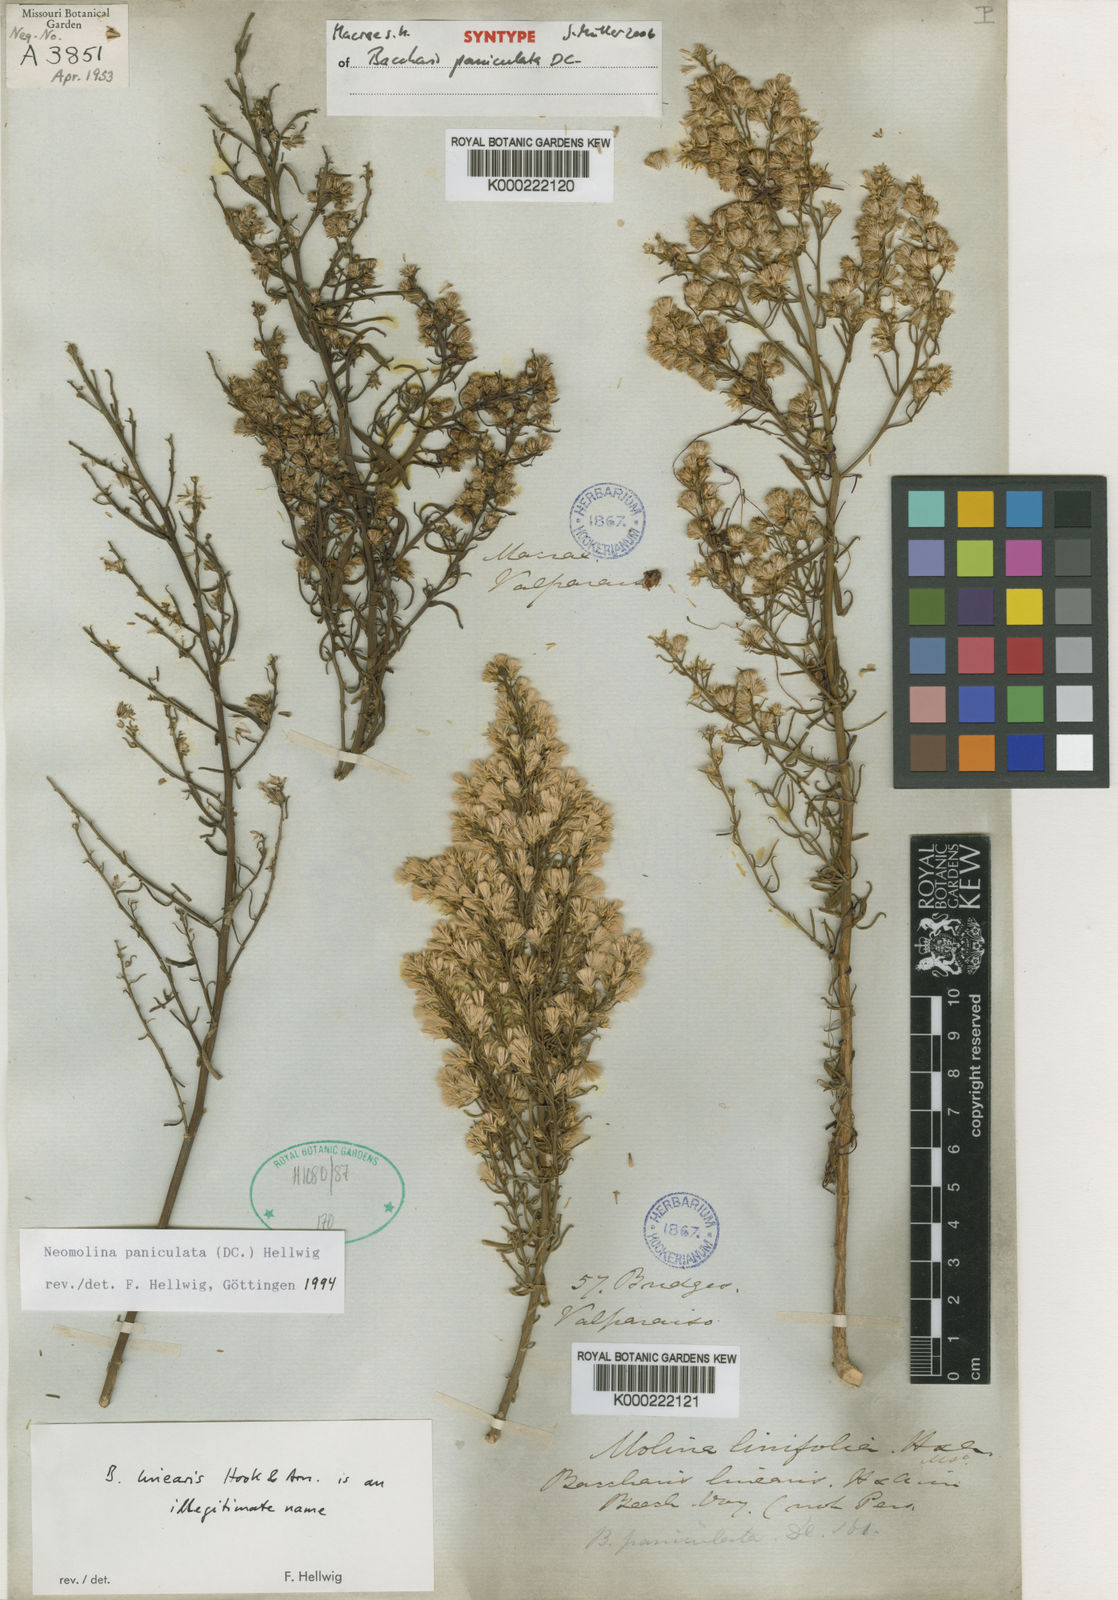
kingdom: Plantae
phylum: Tracheophyta
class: Magnoliopsida
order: Asterales
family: Asteraceae
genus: Baccharis
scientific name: Baccharis paniculata
